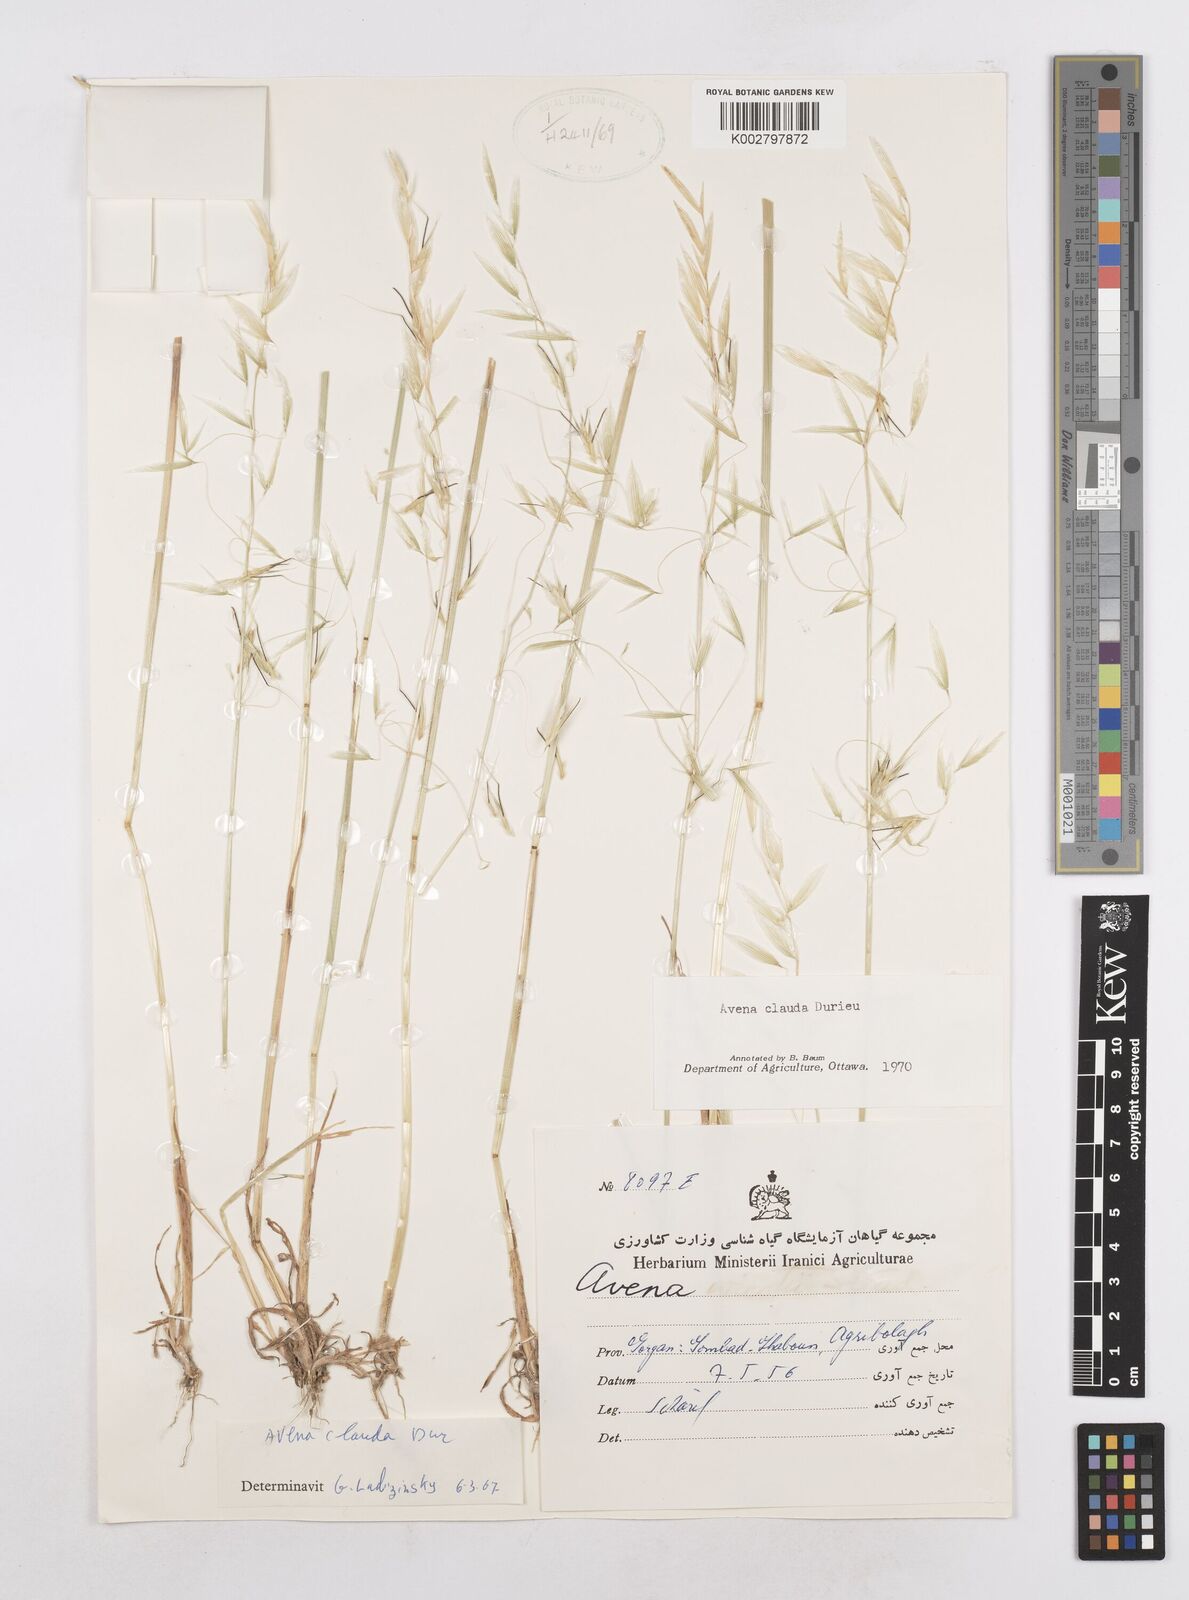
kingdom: Plantae
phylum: Tracheophyta
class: Liliopsida
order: Poales
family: Poaceae
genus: Avena
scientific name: Avena clauda
